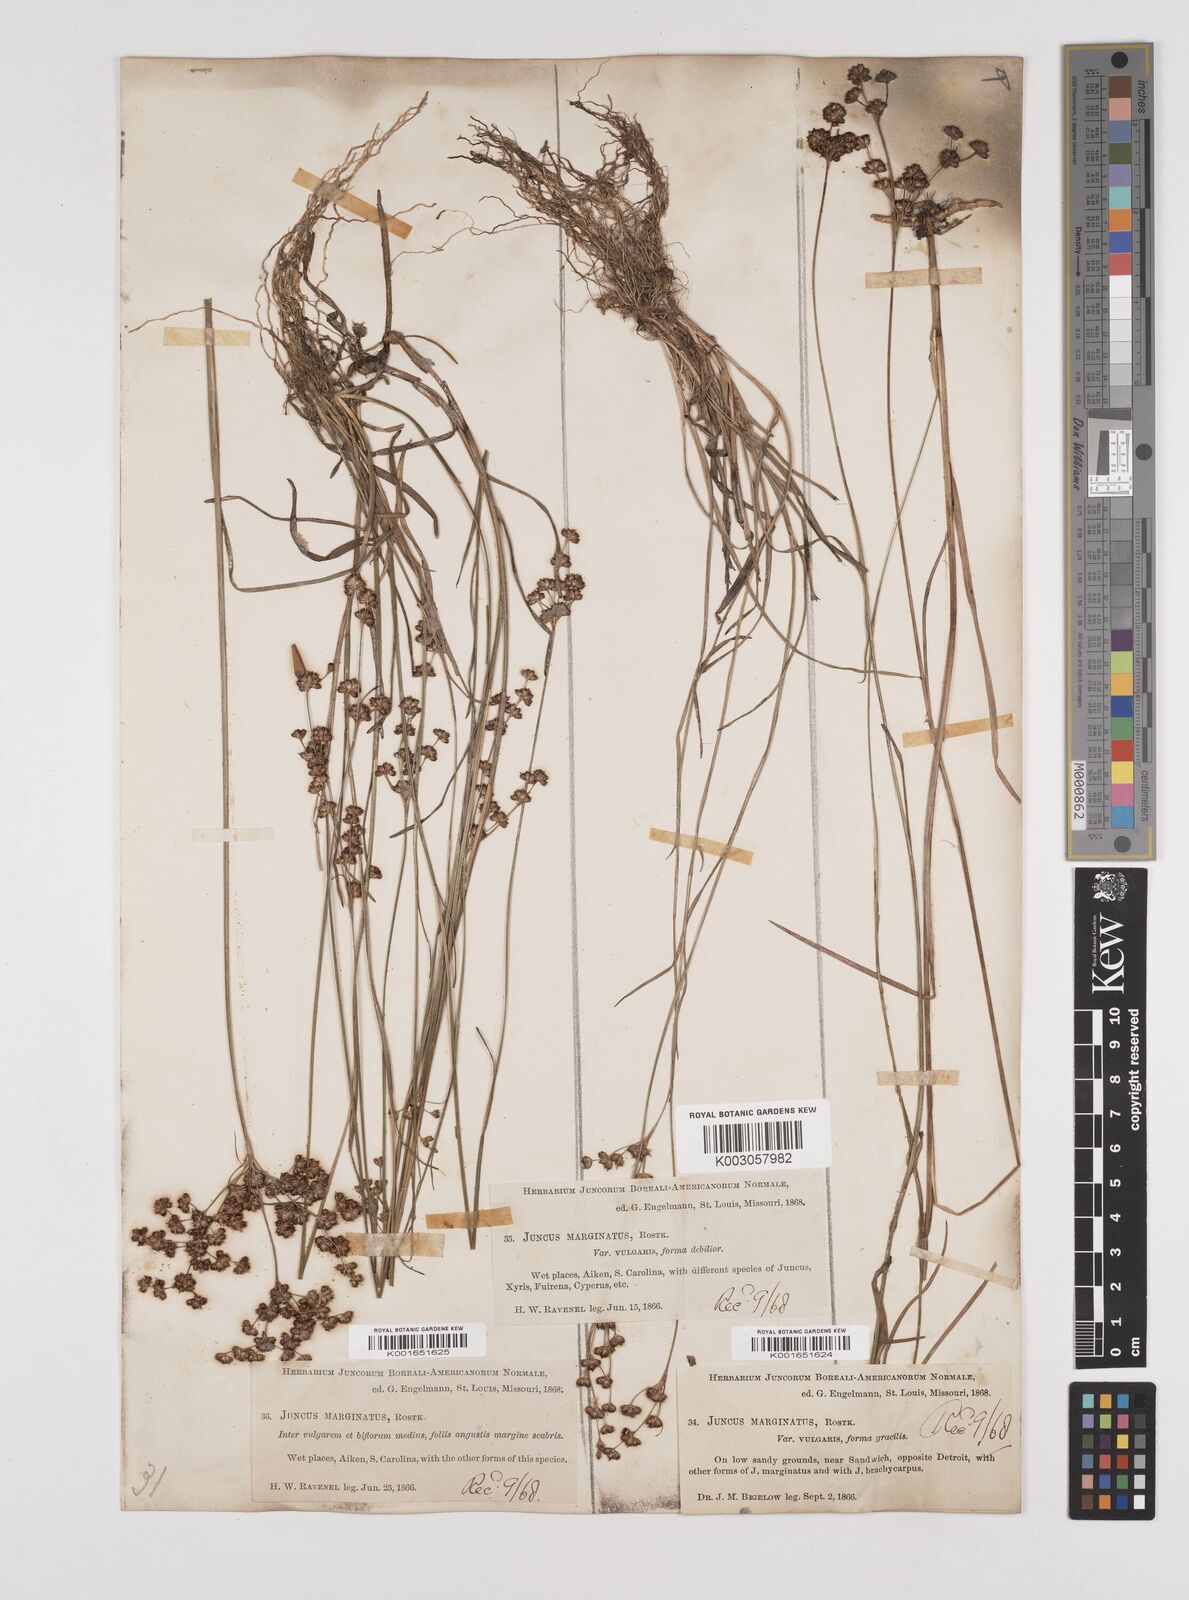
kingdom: Plantae
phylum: Tracheophyta
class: Liliopsida
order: Poales
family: Juncaceae
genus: Juncus
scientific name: Juncus marginatus
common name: Grass-leaf rush
